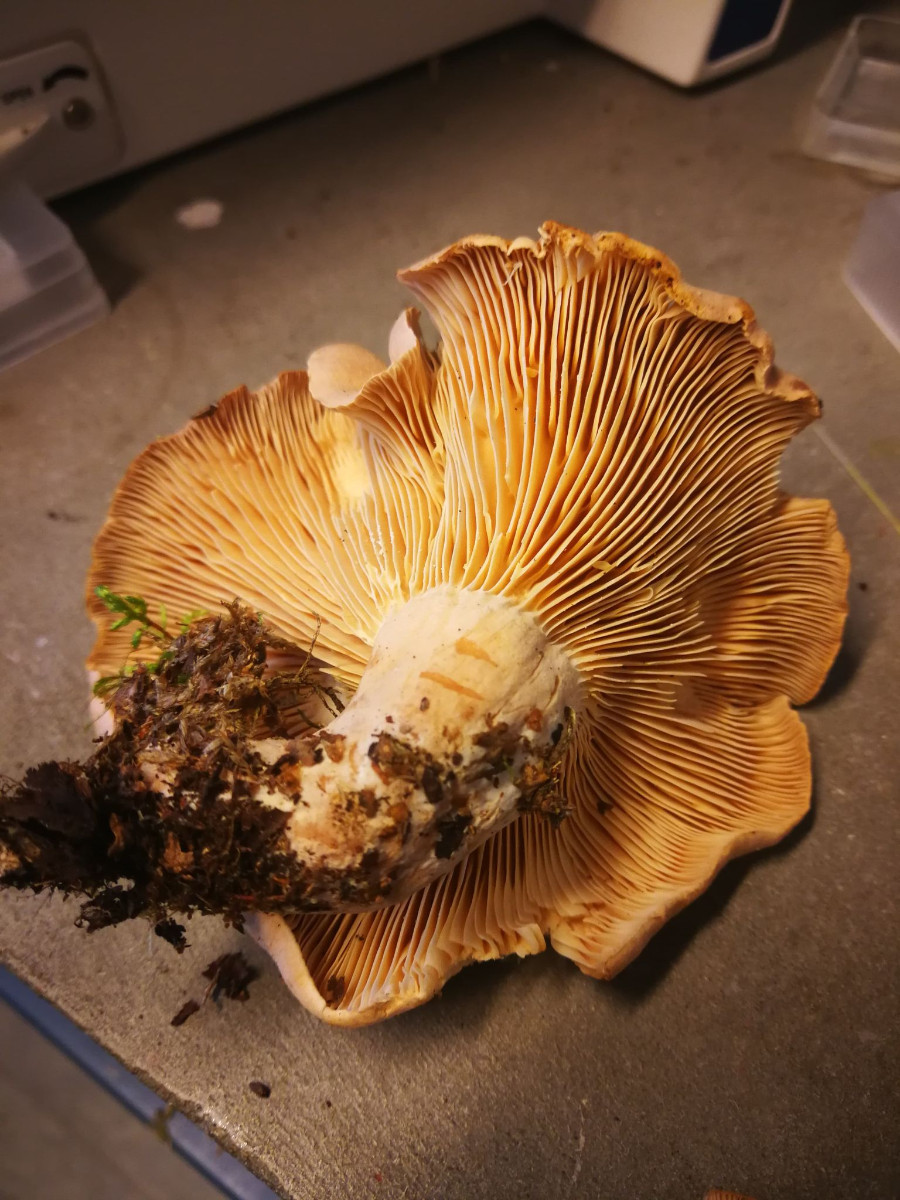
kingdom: Fungi
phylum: Basidiomycota
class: Agaricomycetes
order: Russulales
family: Russulaceae
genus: Lactarius
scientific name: Lactarius helvus
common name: mose-mælkehat
